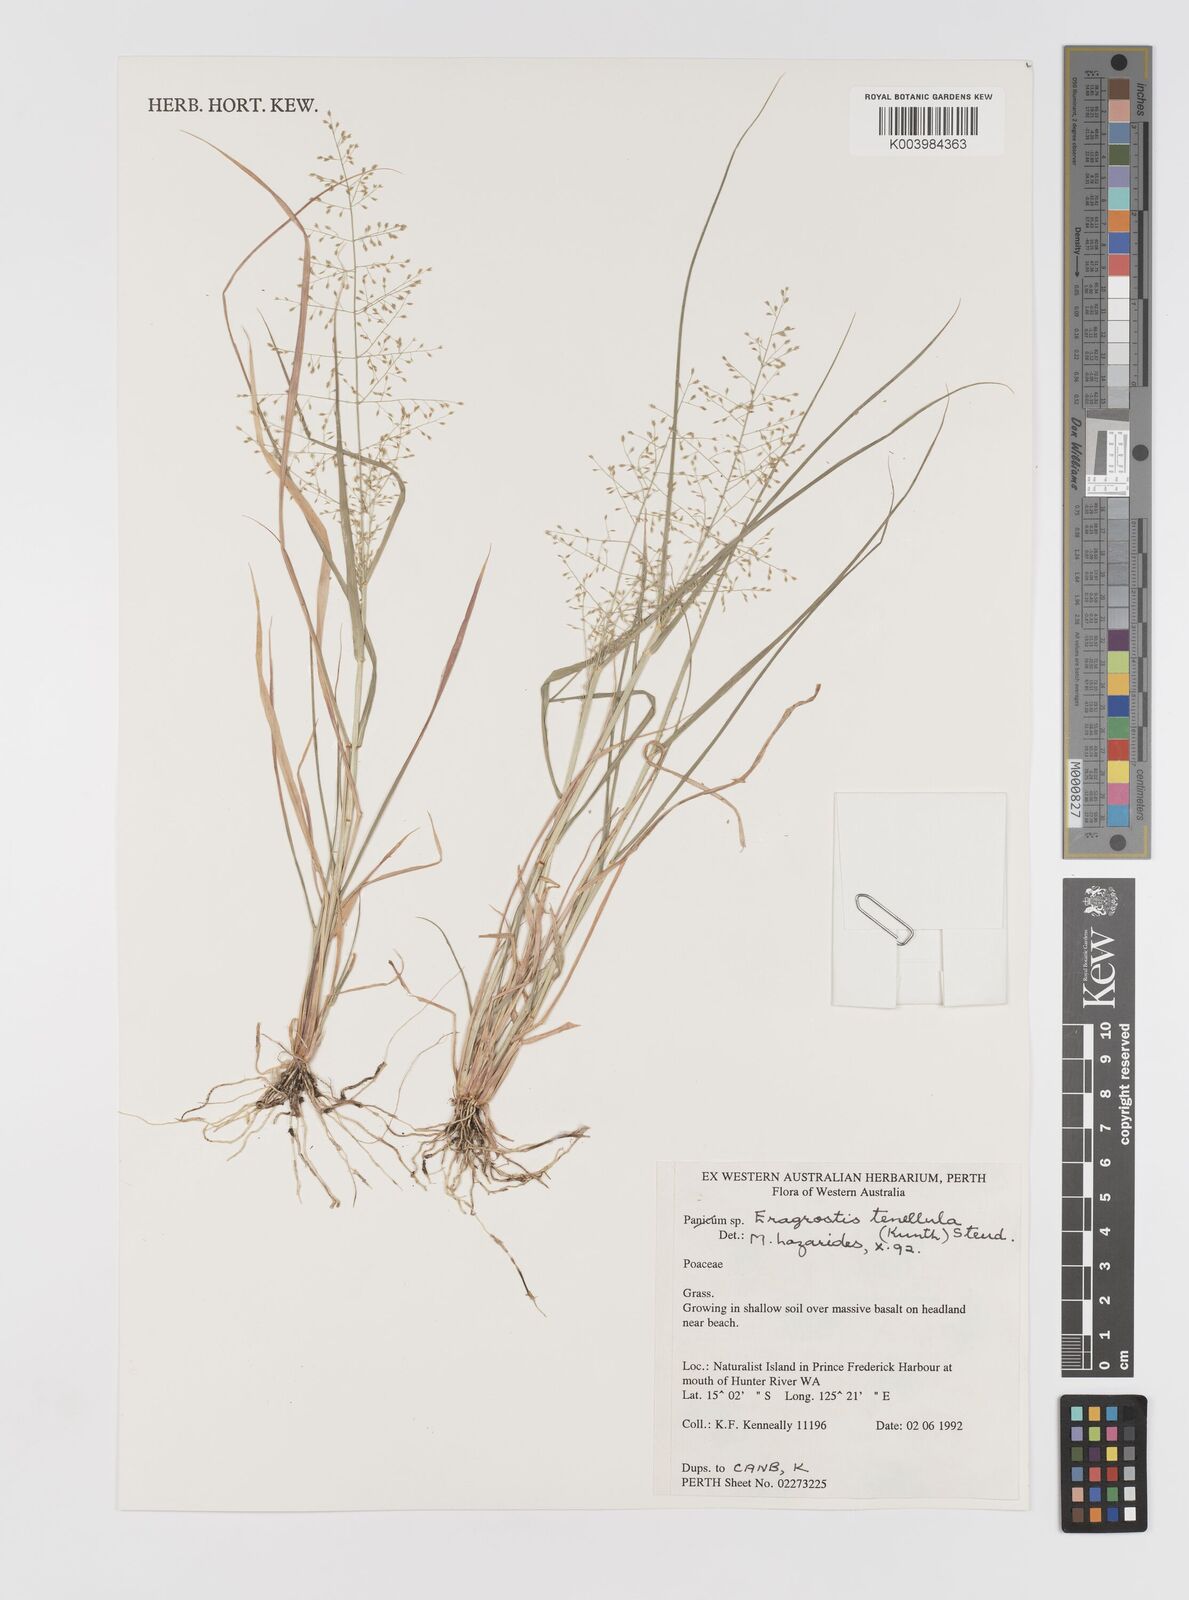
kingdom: Plantae
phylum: Tracheophyta
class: Liliopsida
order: Poales
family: Poaceae
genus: Eragrostis
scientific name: Eragrostis tenellula
